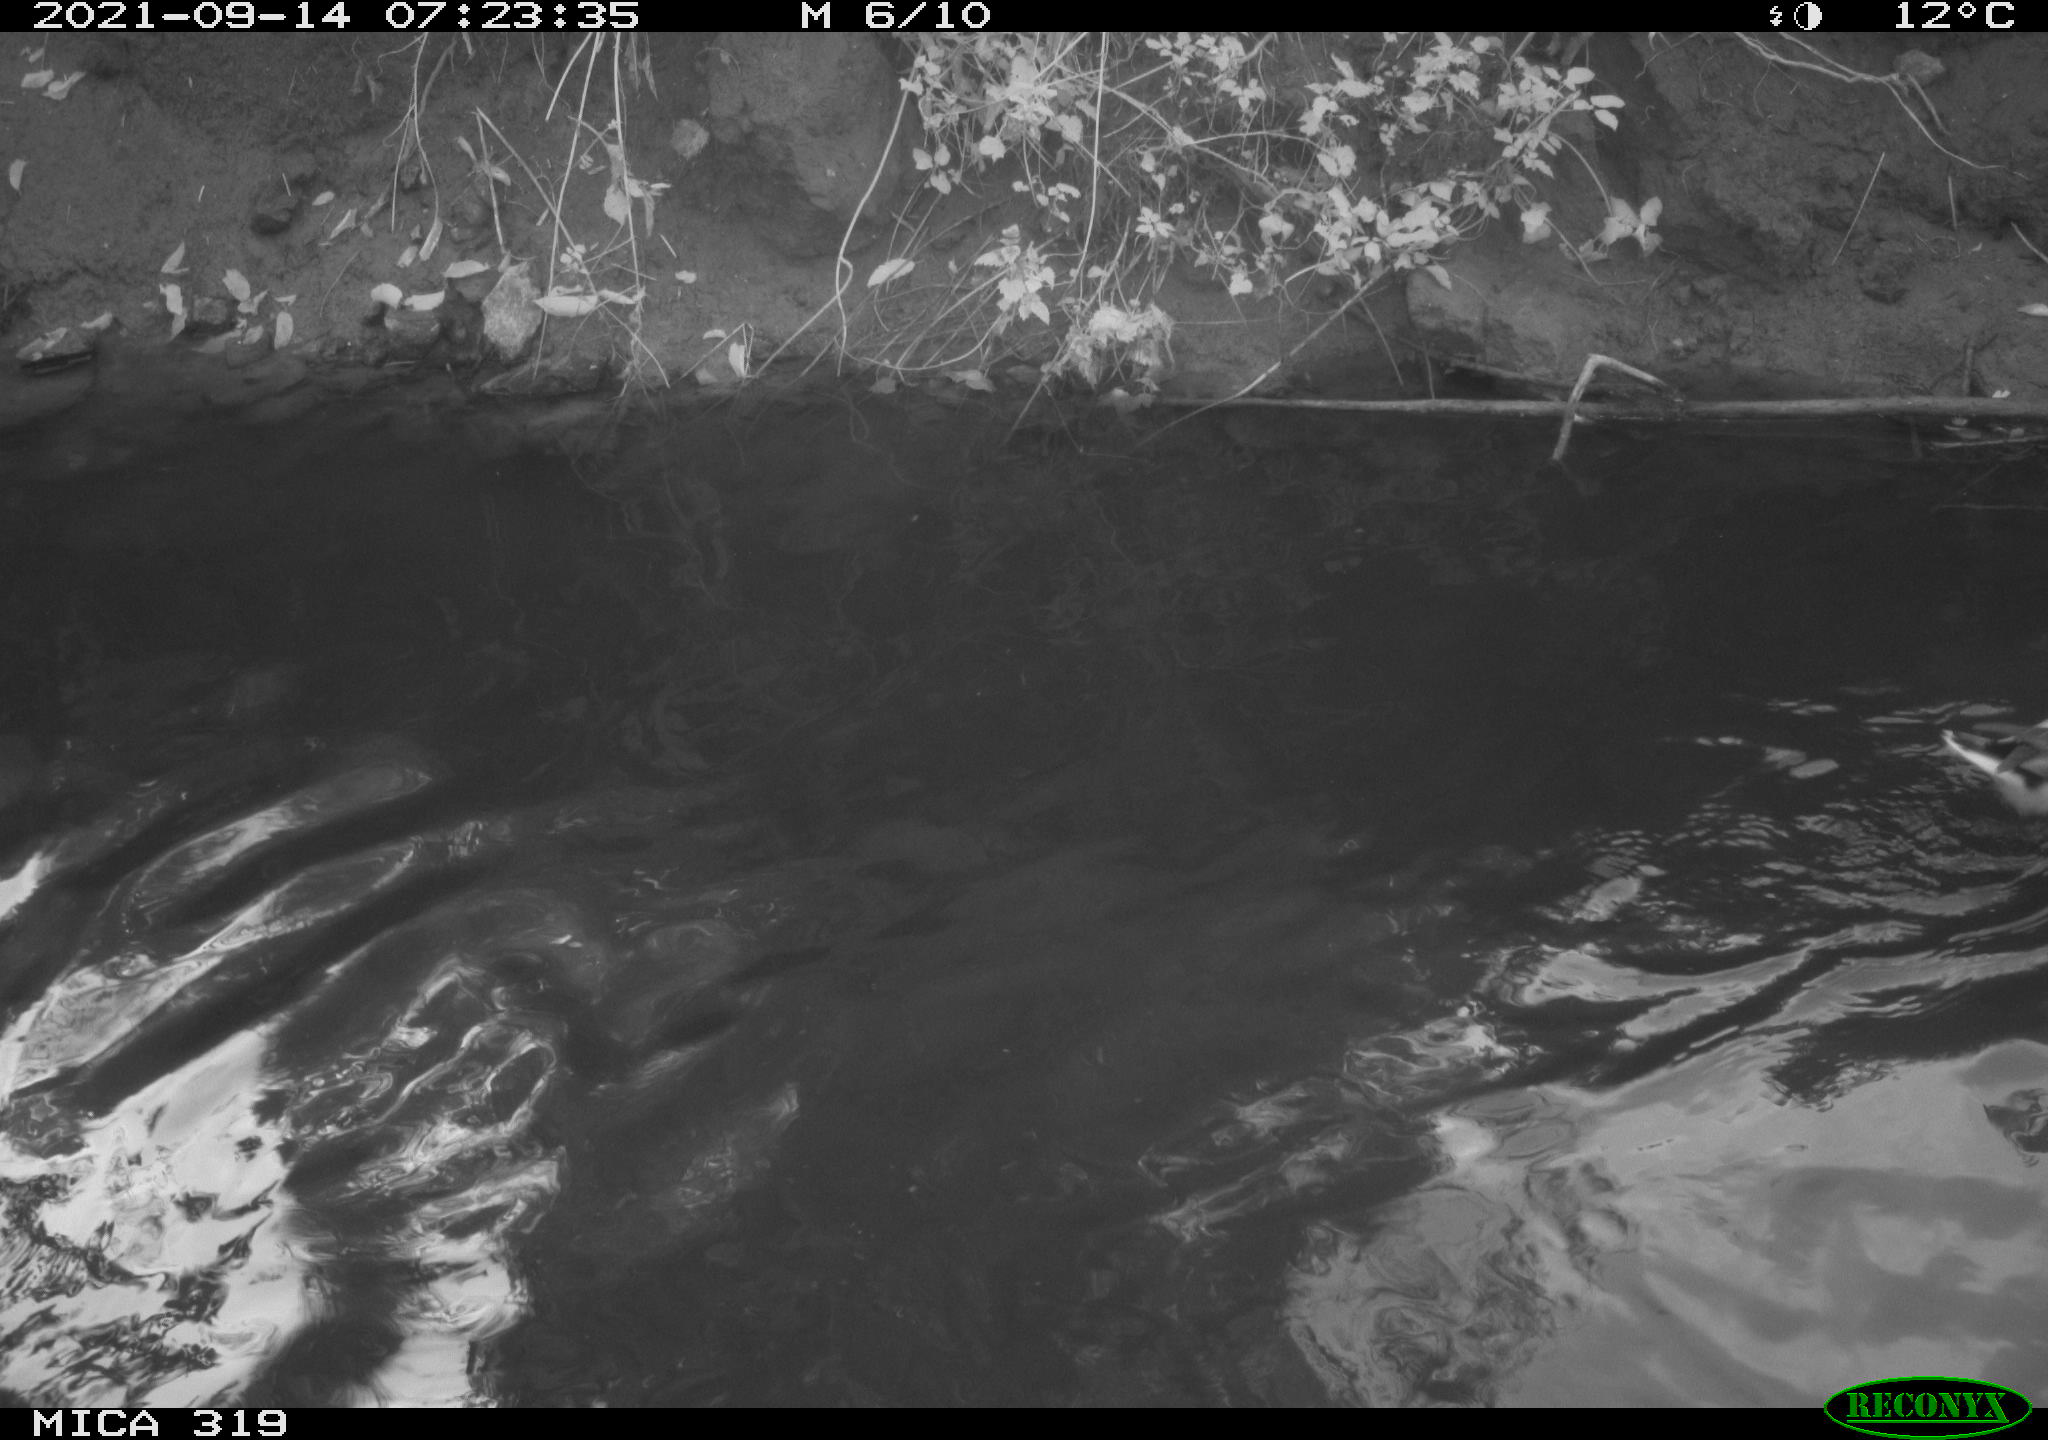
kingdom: Animalia
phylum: Chordata
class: Aves
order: Anseriformes
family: Anatidae
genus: Mareca
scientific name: Mareca strepera
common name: Gadwall
